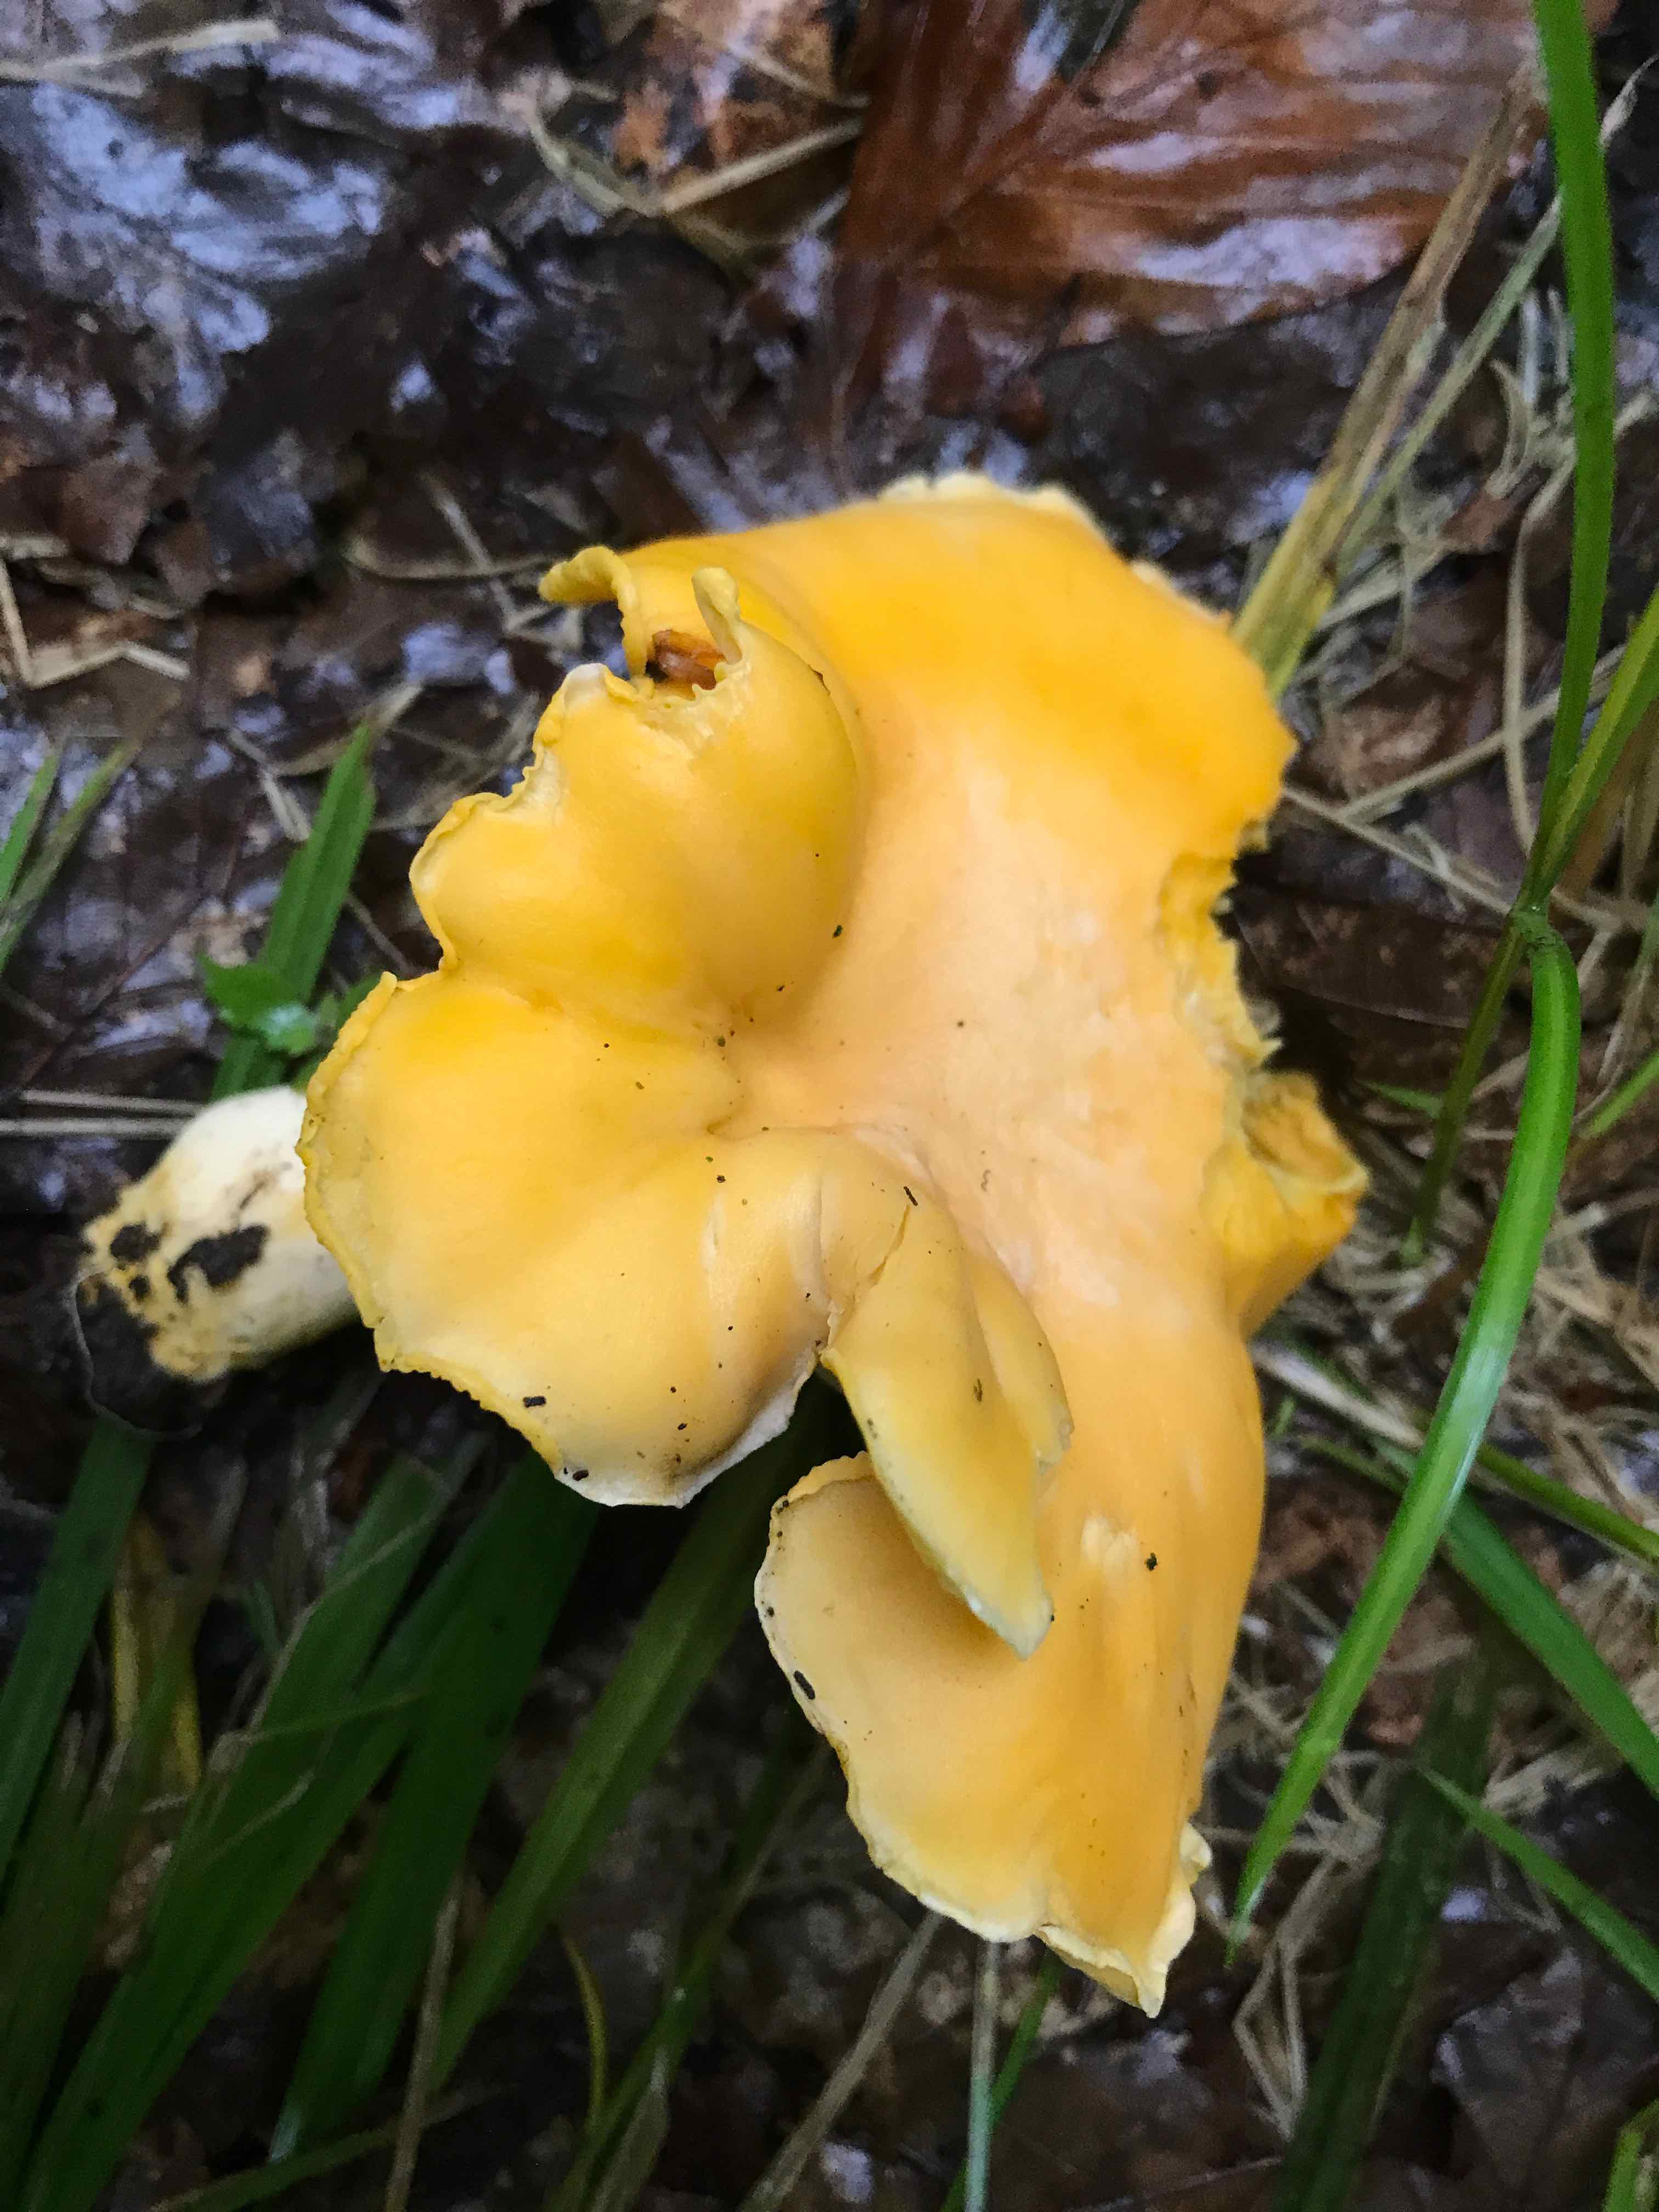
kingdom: Fungi
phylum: Basidiomycota
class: Agaricomycetes
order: Cantharellales
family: Hydnaceae
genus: Cantharellus
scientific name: Cantharellus cibarius
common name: almindelig kantarel
